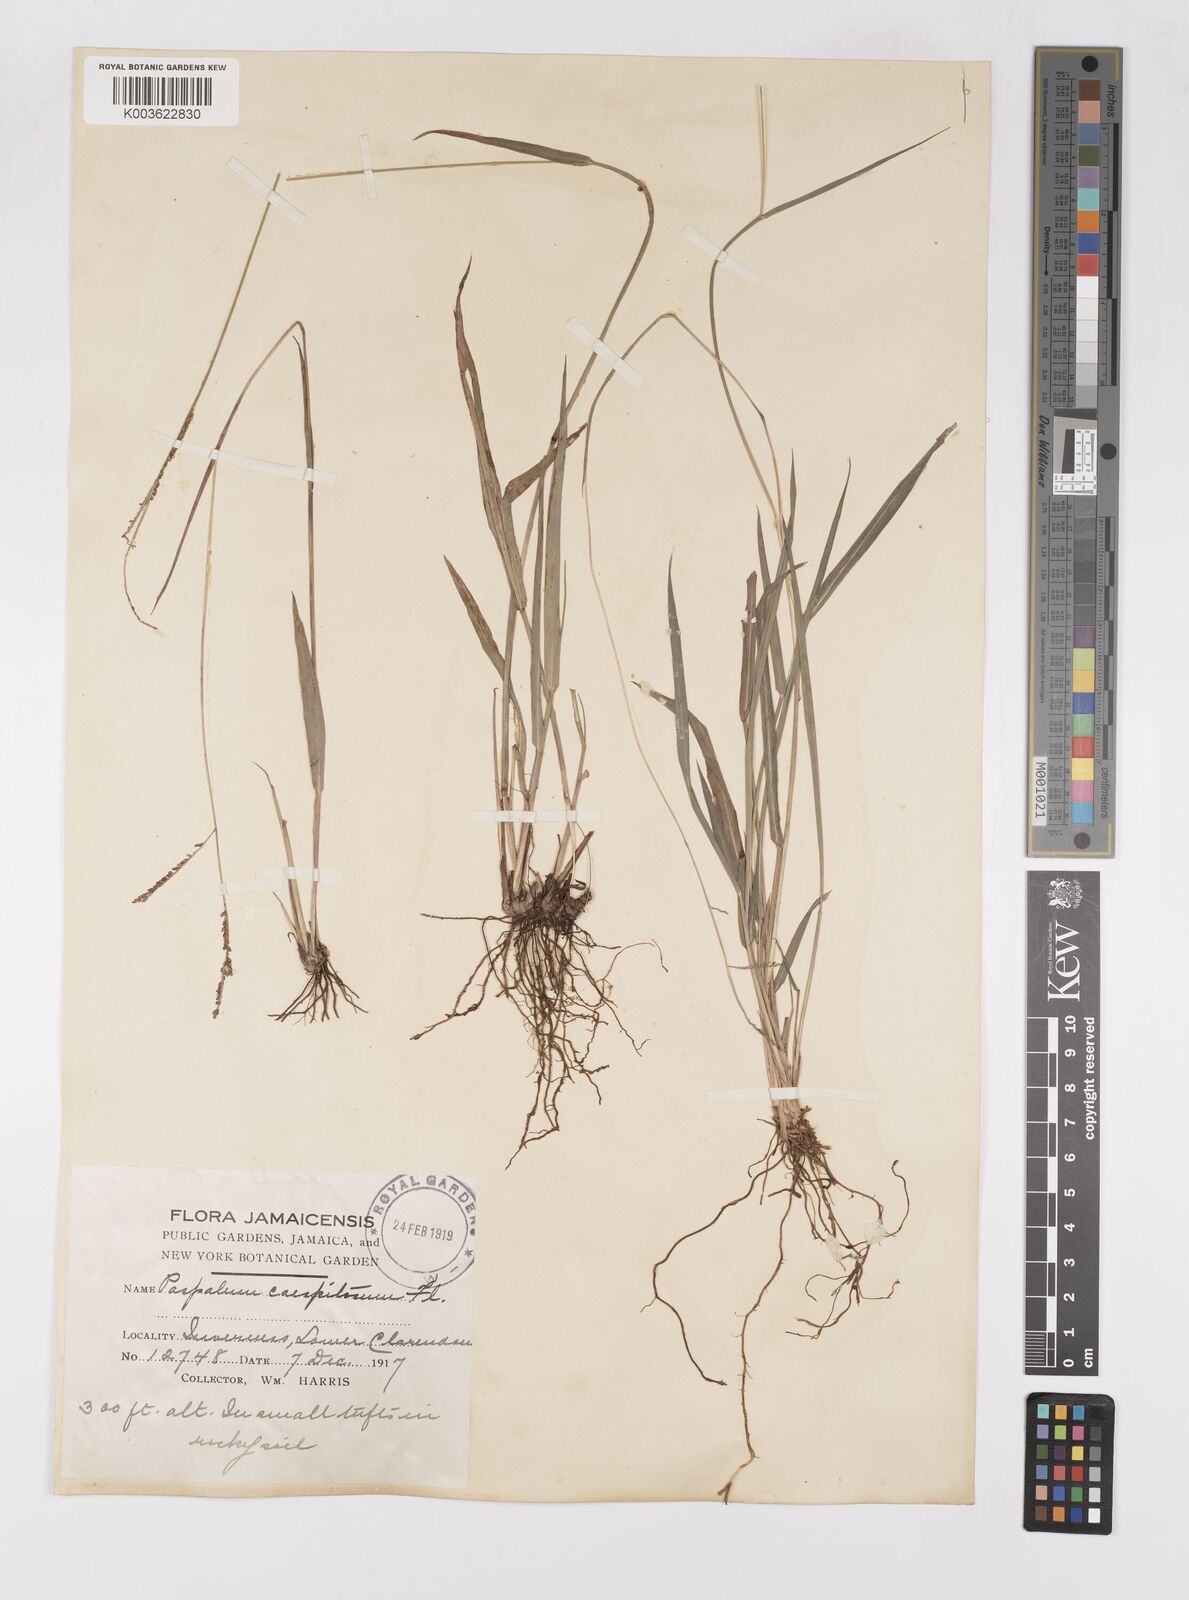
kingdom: Plantae
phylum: Tracheophyta
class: Liliopsida
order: Poales
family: Poaceae
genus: Paspalum
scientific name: Paspalum caespitosum
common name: Blue crowngrass
